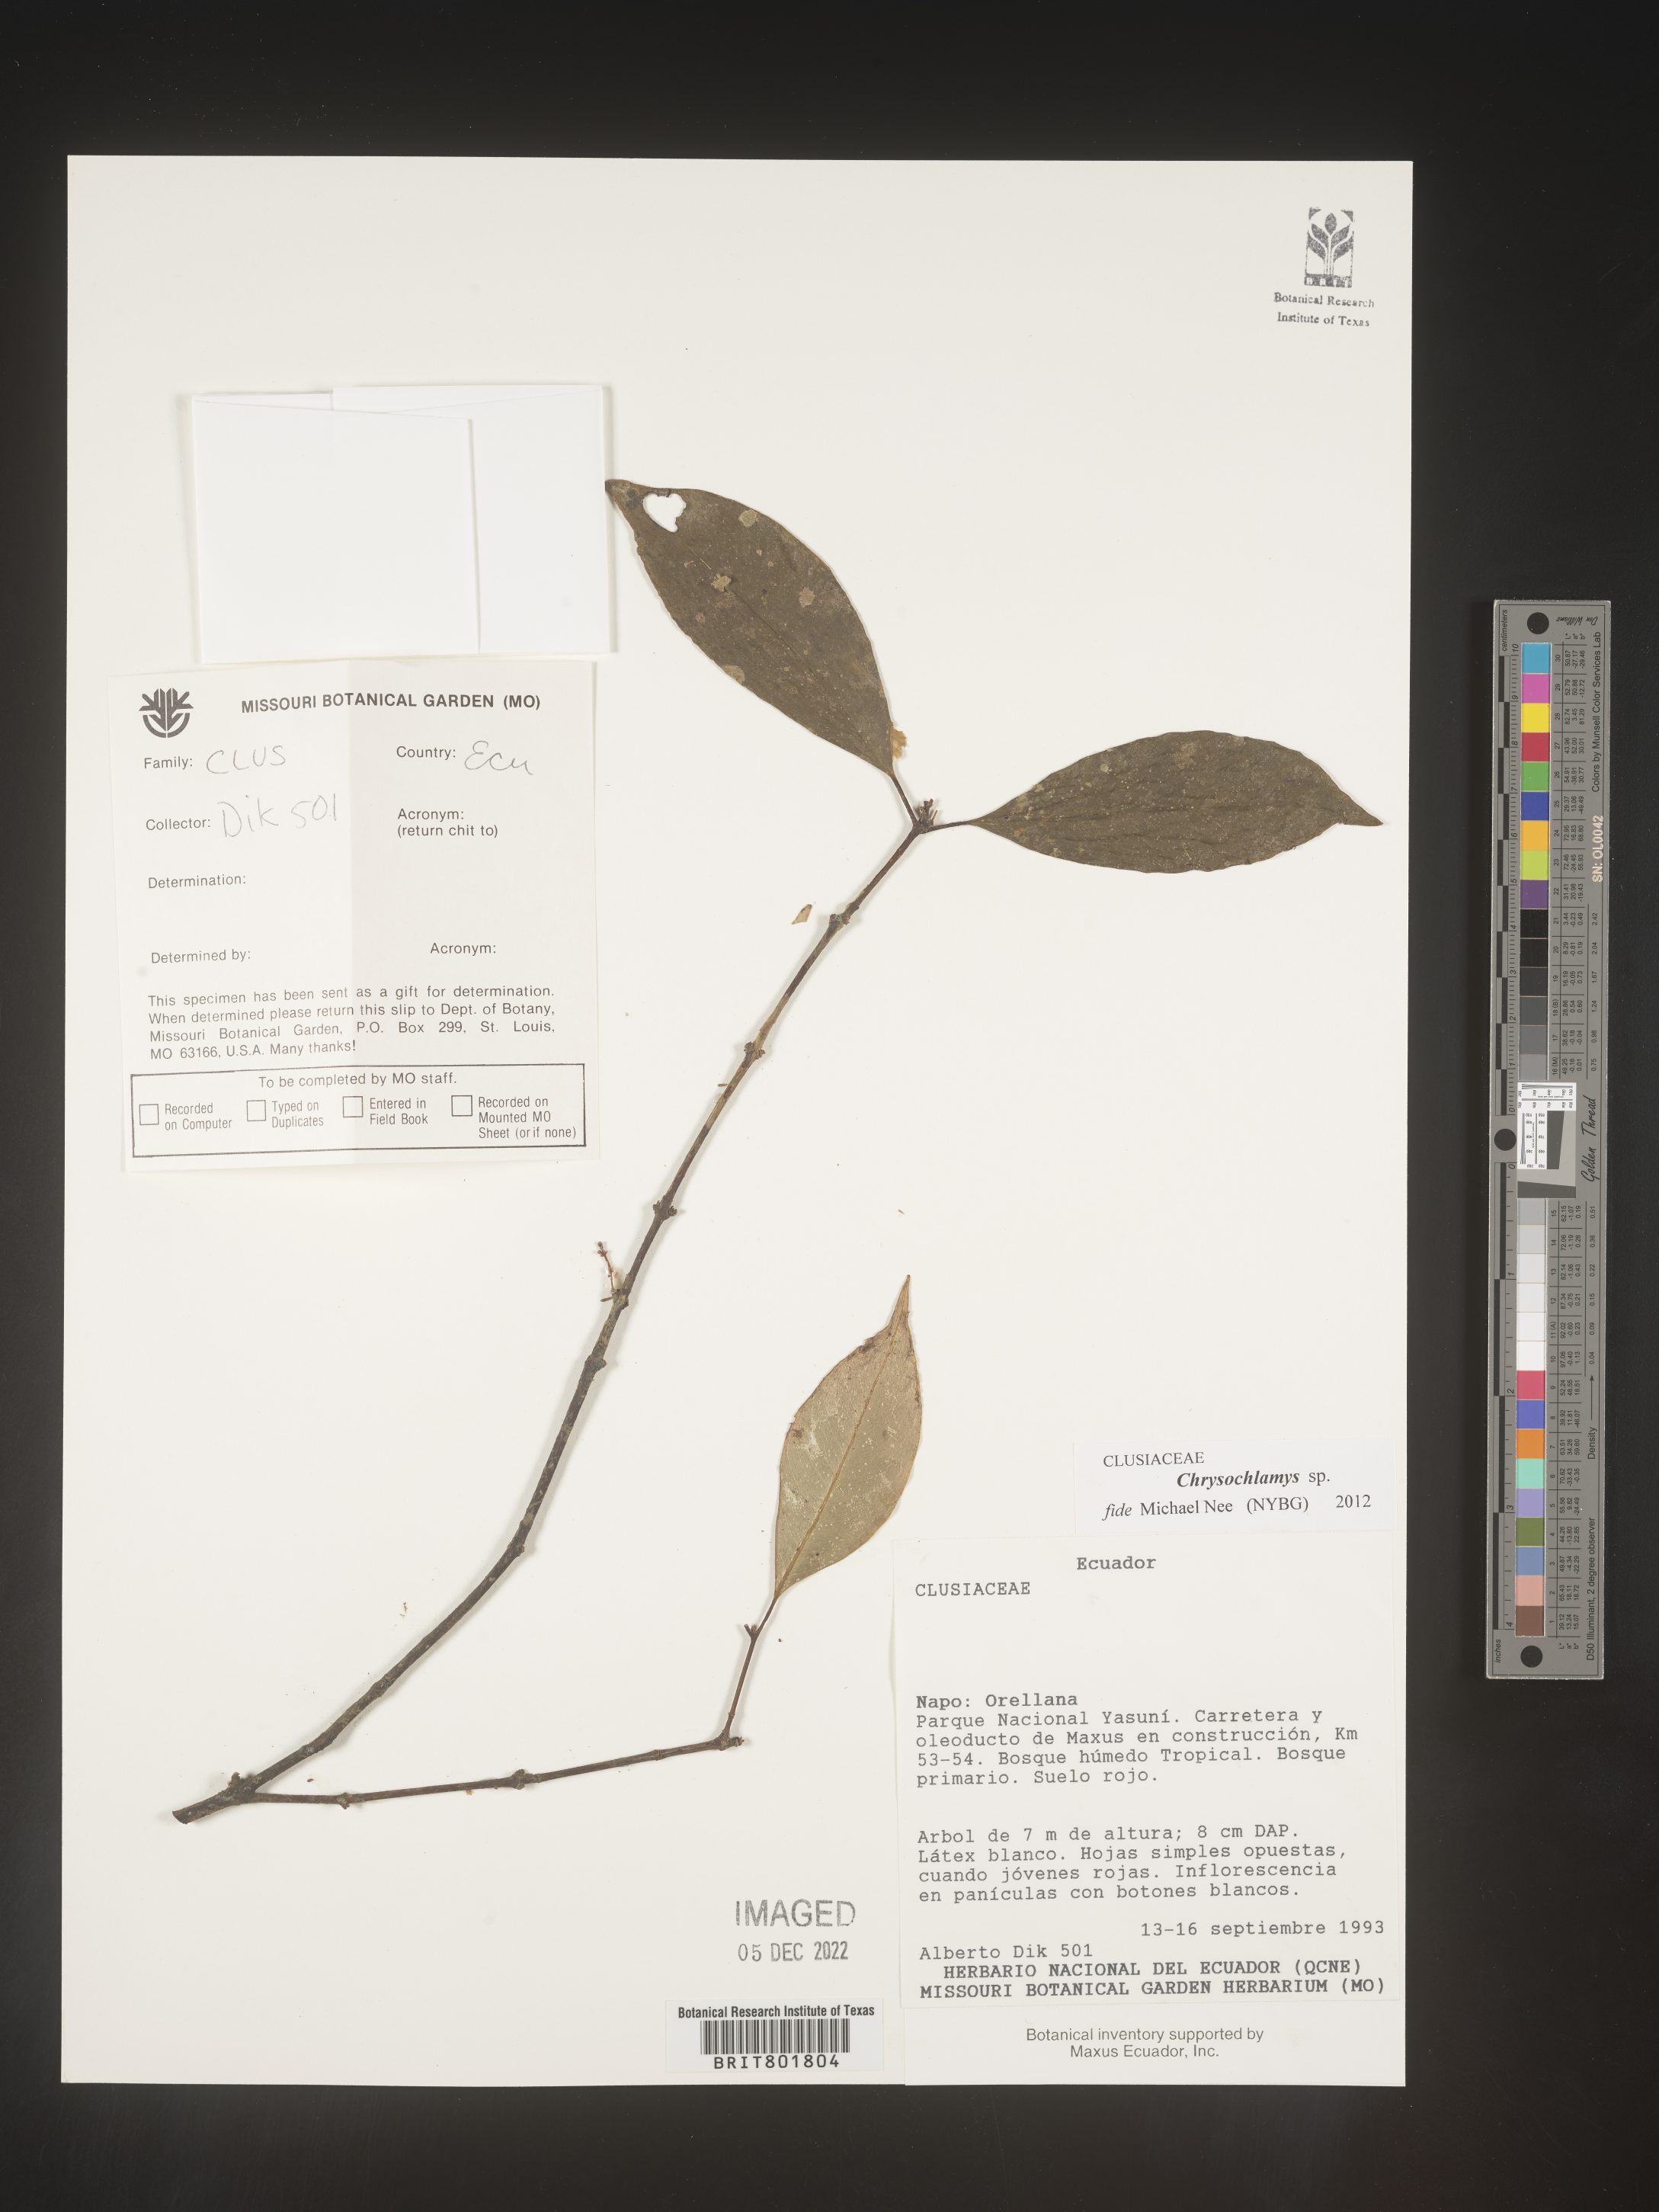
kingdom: Plantae
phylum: Tracheophyta
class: Magnoliopsida
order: Malpighiales
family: Clusiaceae
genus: Chrysochlamys
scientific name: Chrysochlamys
